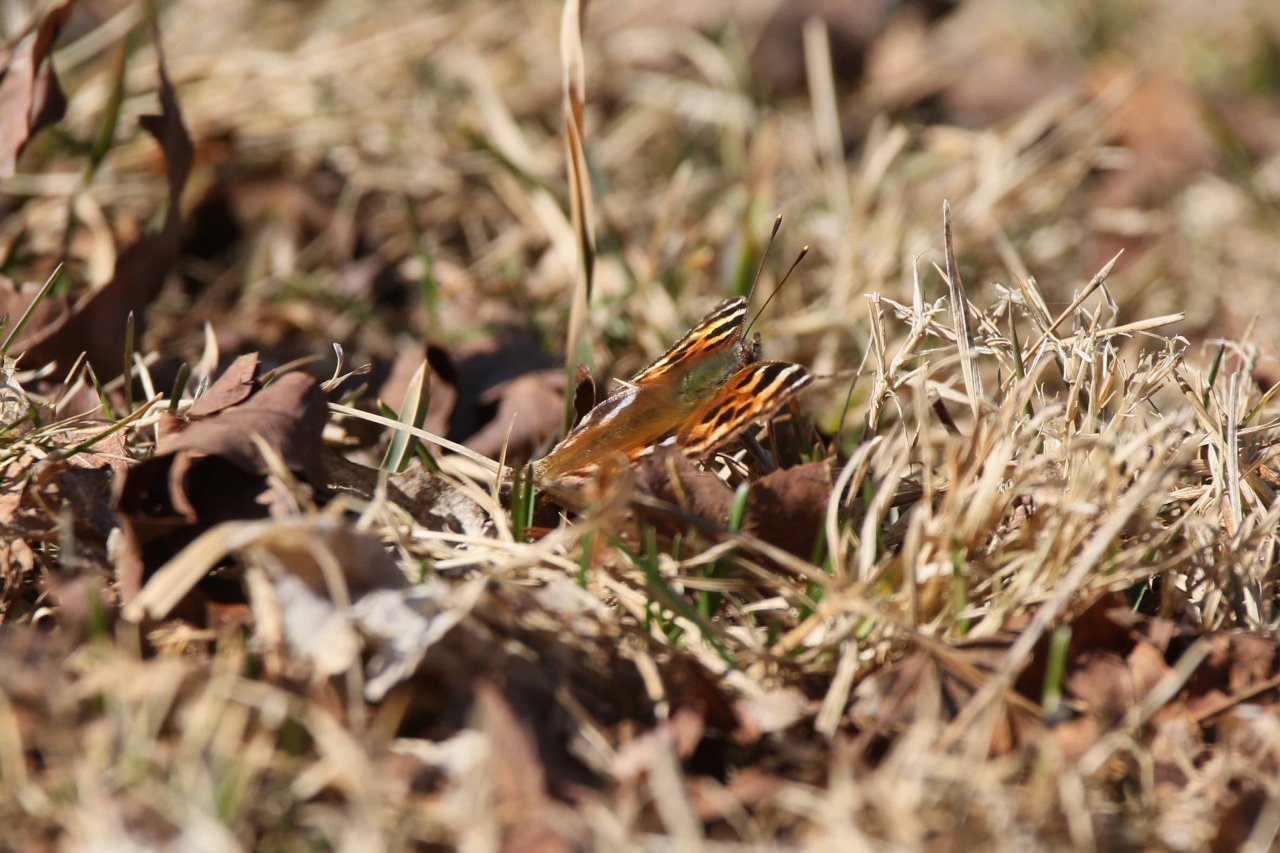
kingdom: Animalia
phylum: Arthropoda
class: Insecta
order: Lepidoptera
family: Nymphalidae
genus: Polygonia
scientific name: Polygonia vaualbum
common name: Compton Tortoiseshell
